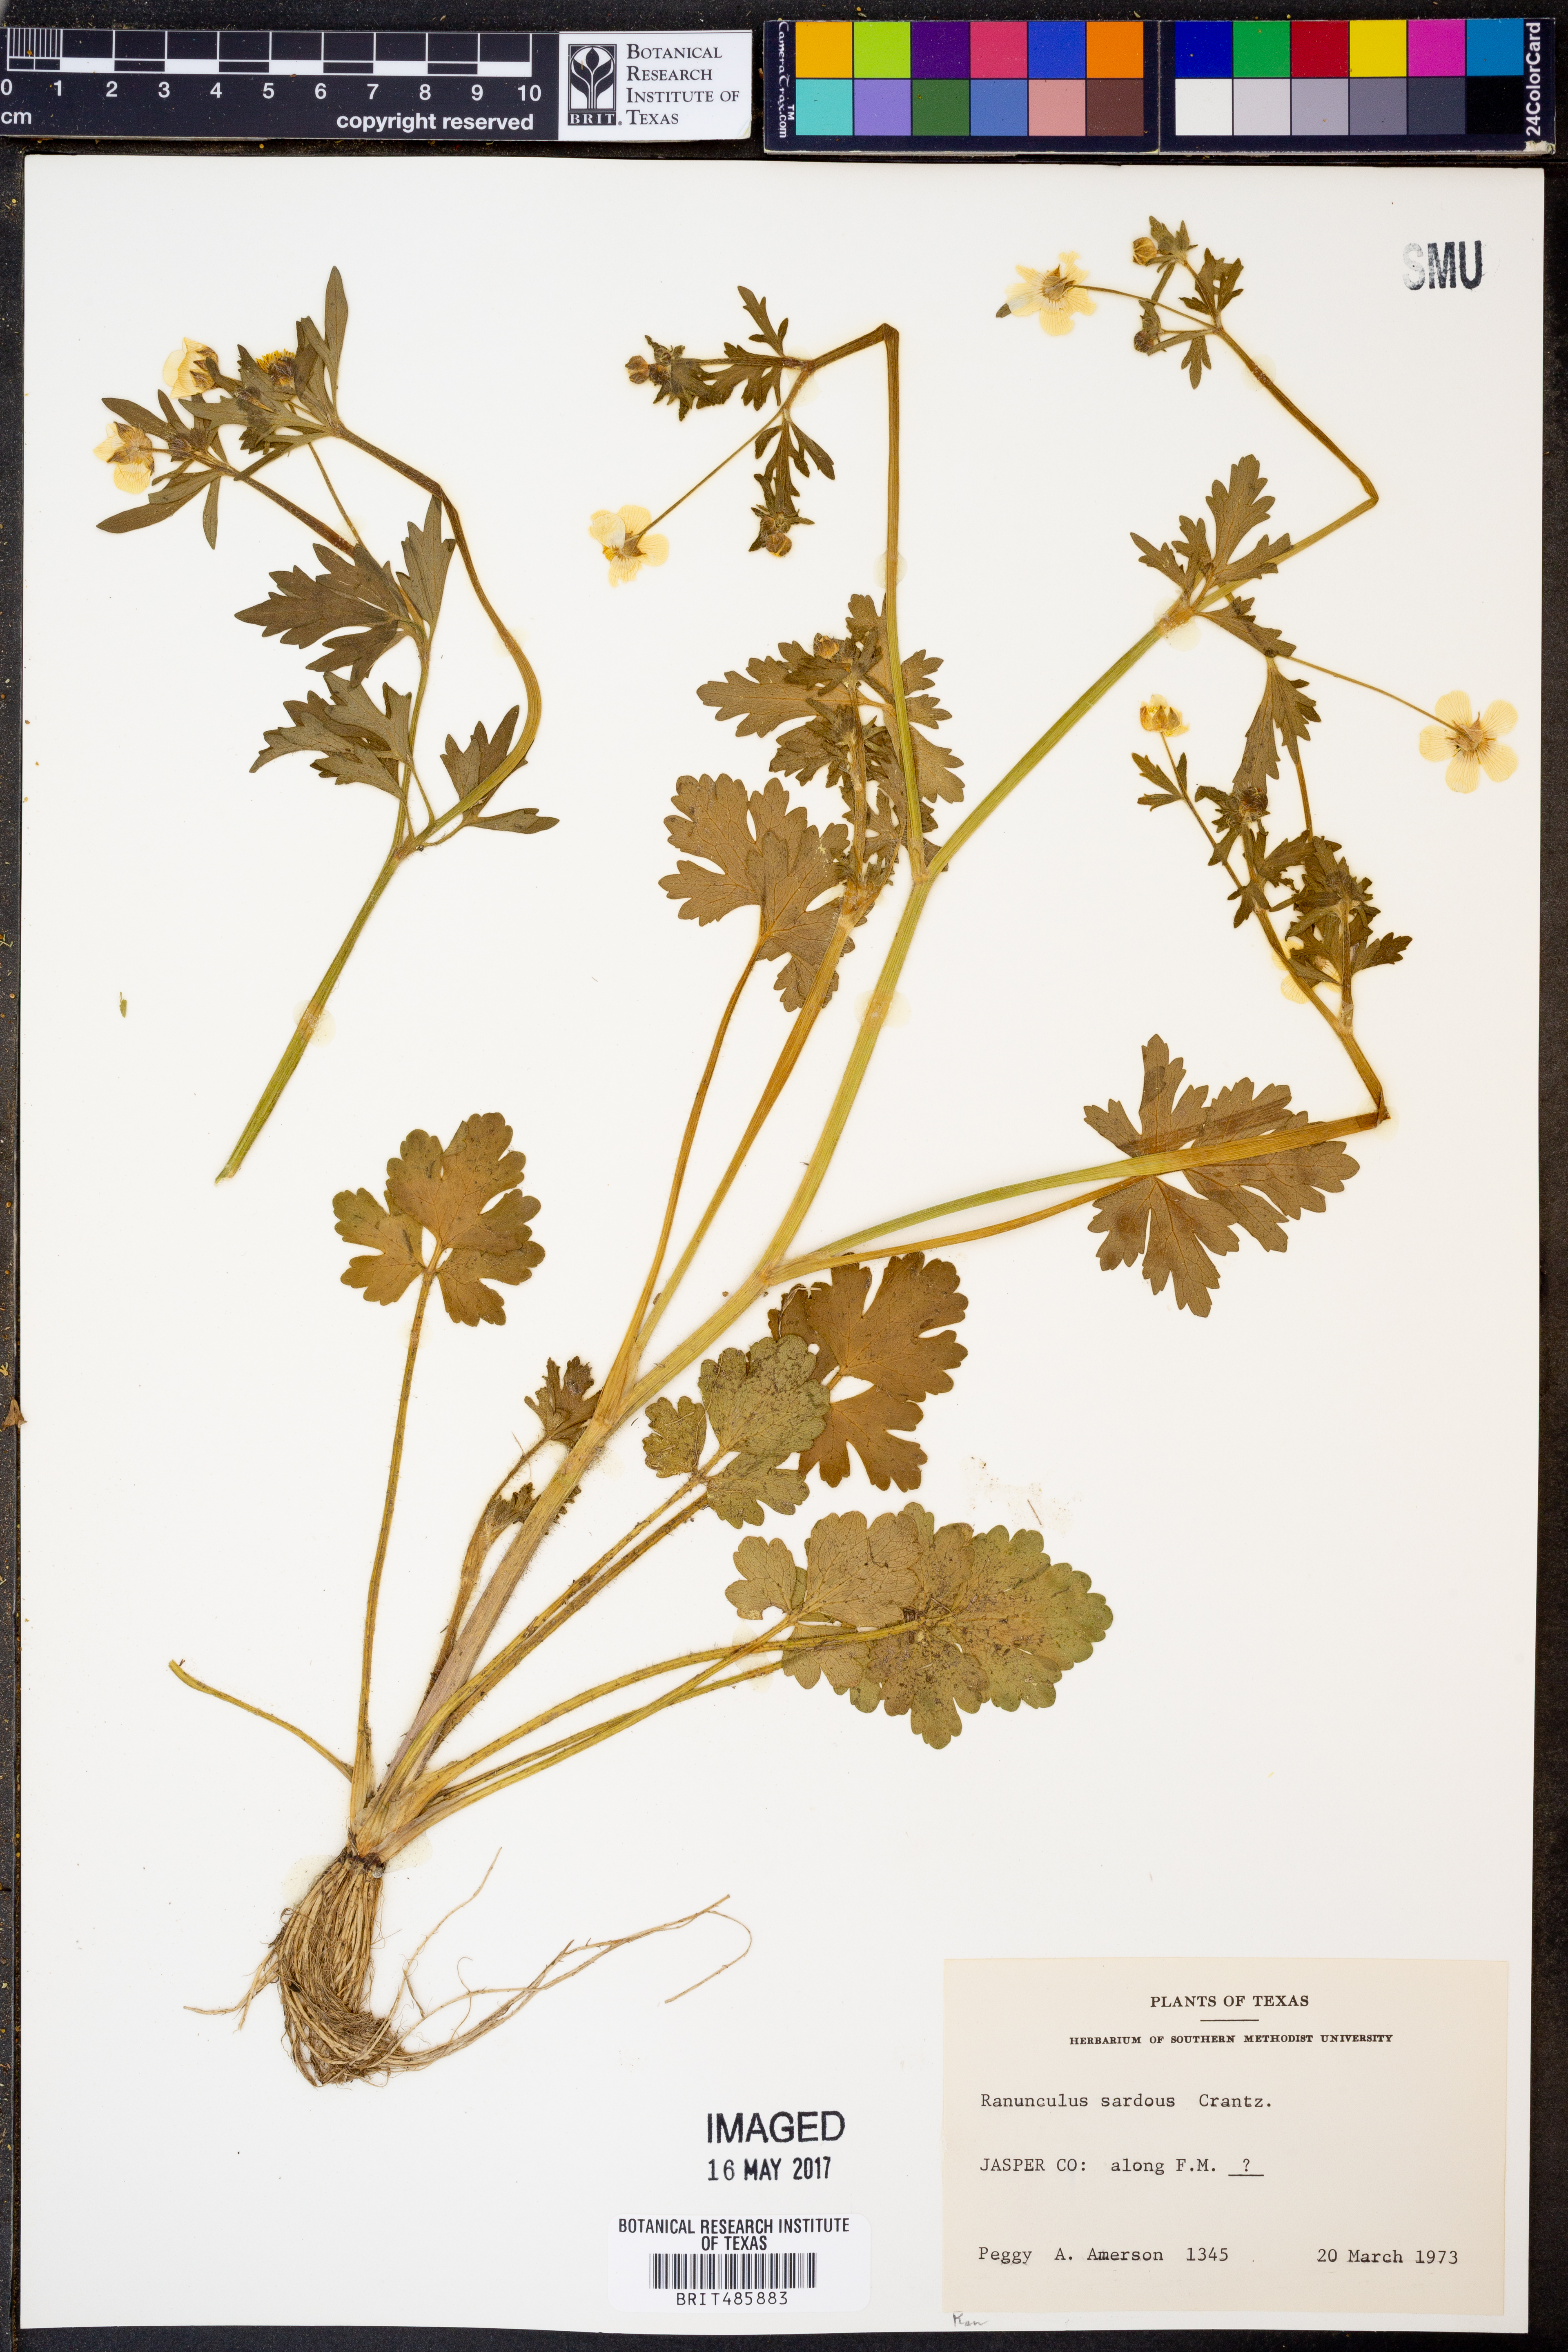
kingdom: Plantae
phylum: Tracheophyta
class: Magnoliopsida
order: Ranunculales
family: Ranunculaceae
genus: Ranunculus
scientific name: Ranunculus sardous
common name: Hairy buttercup
